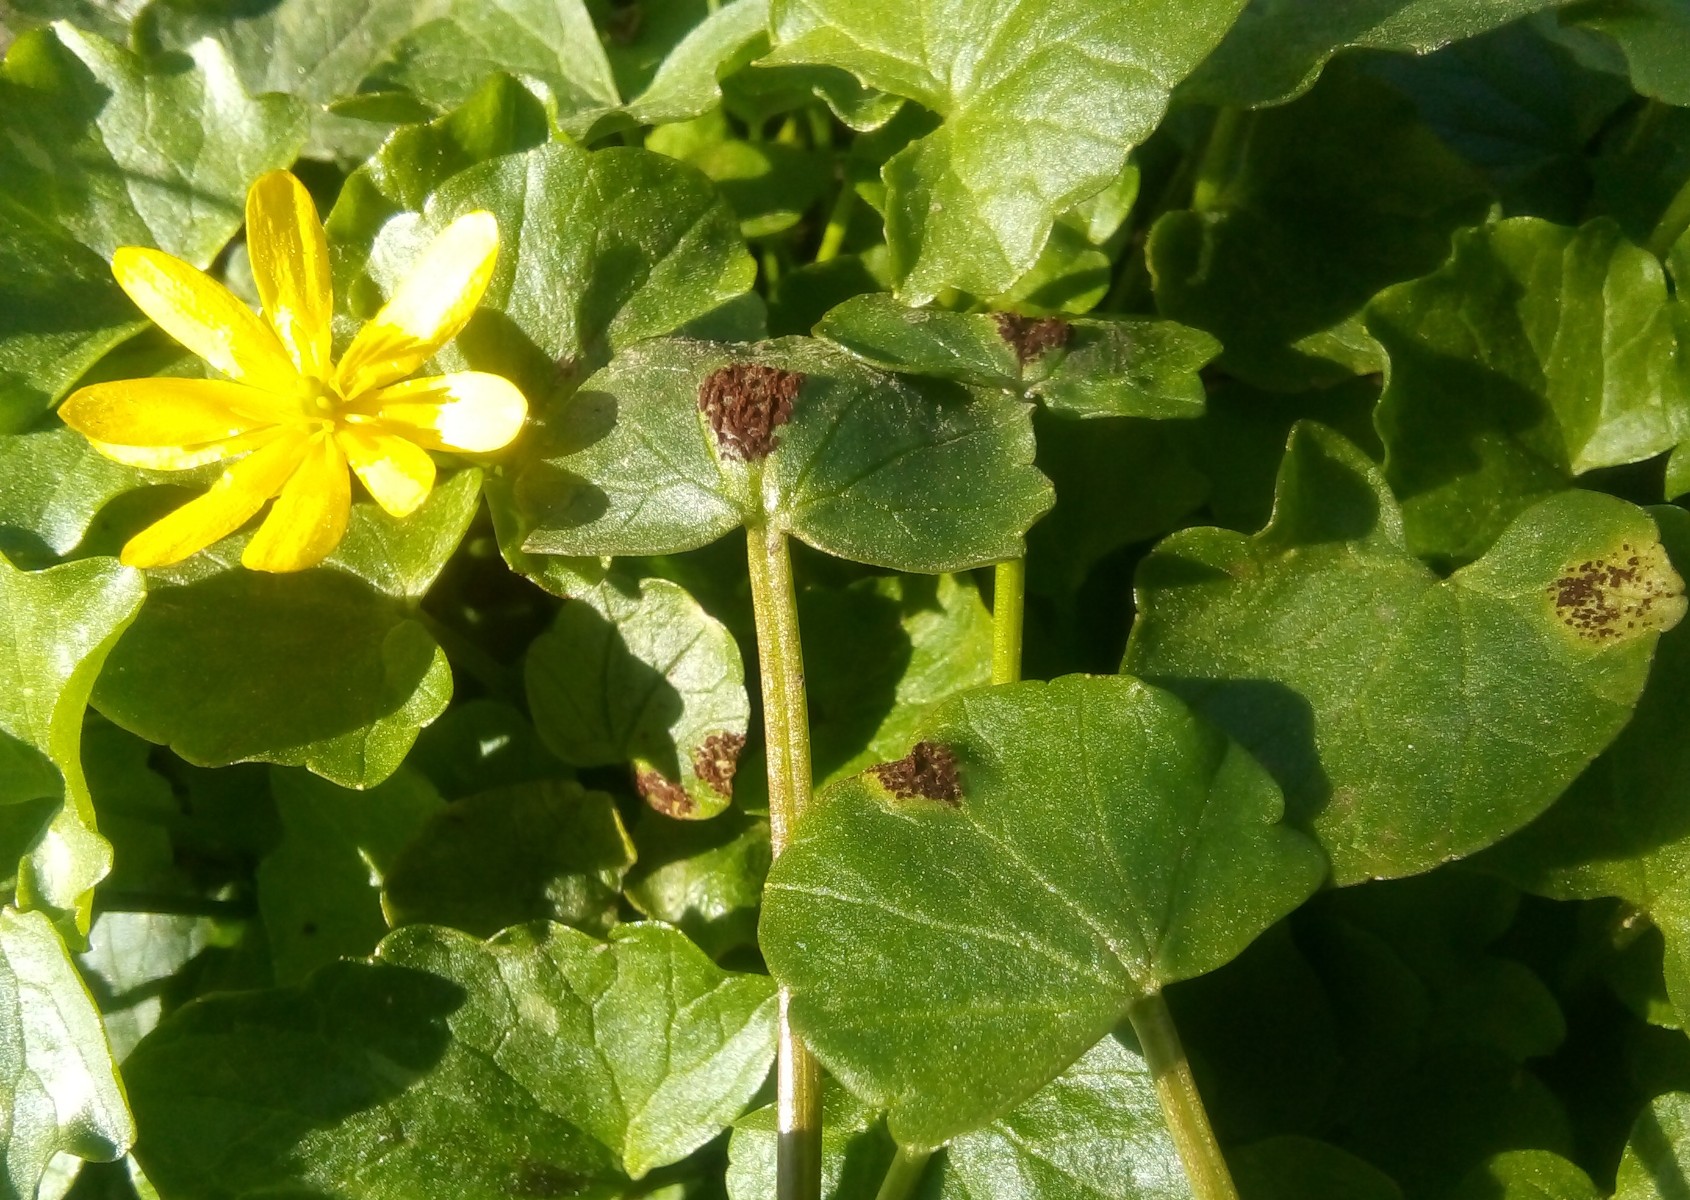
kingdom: Fungi
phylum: Basidiomycota
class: Pucciniomycetes
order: Pucciniales
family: Pucciniaceae
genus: Uromyces
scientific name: Uromyces ficariae
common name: vorterod-encellerust
